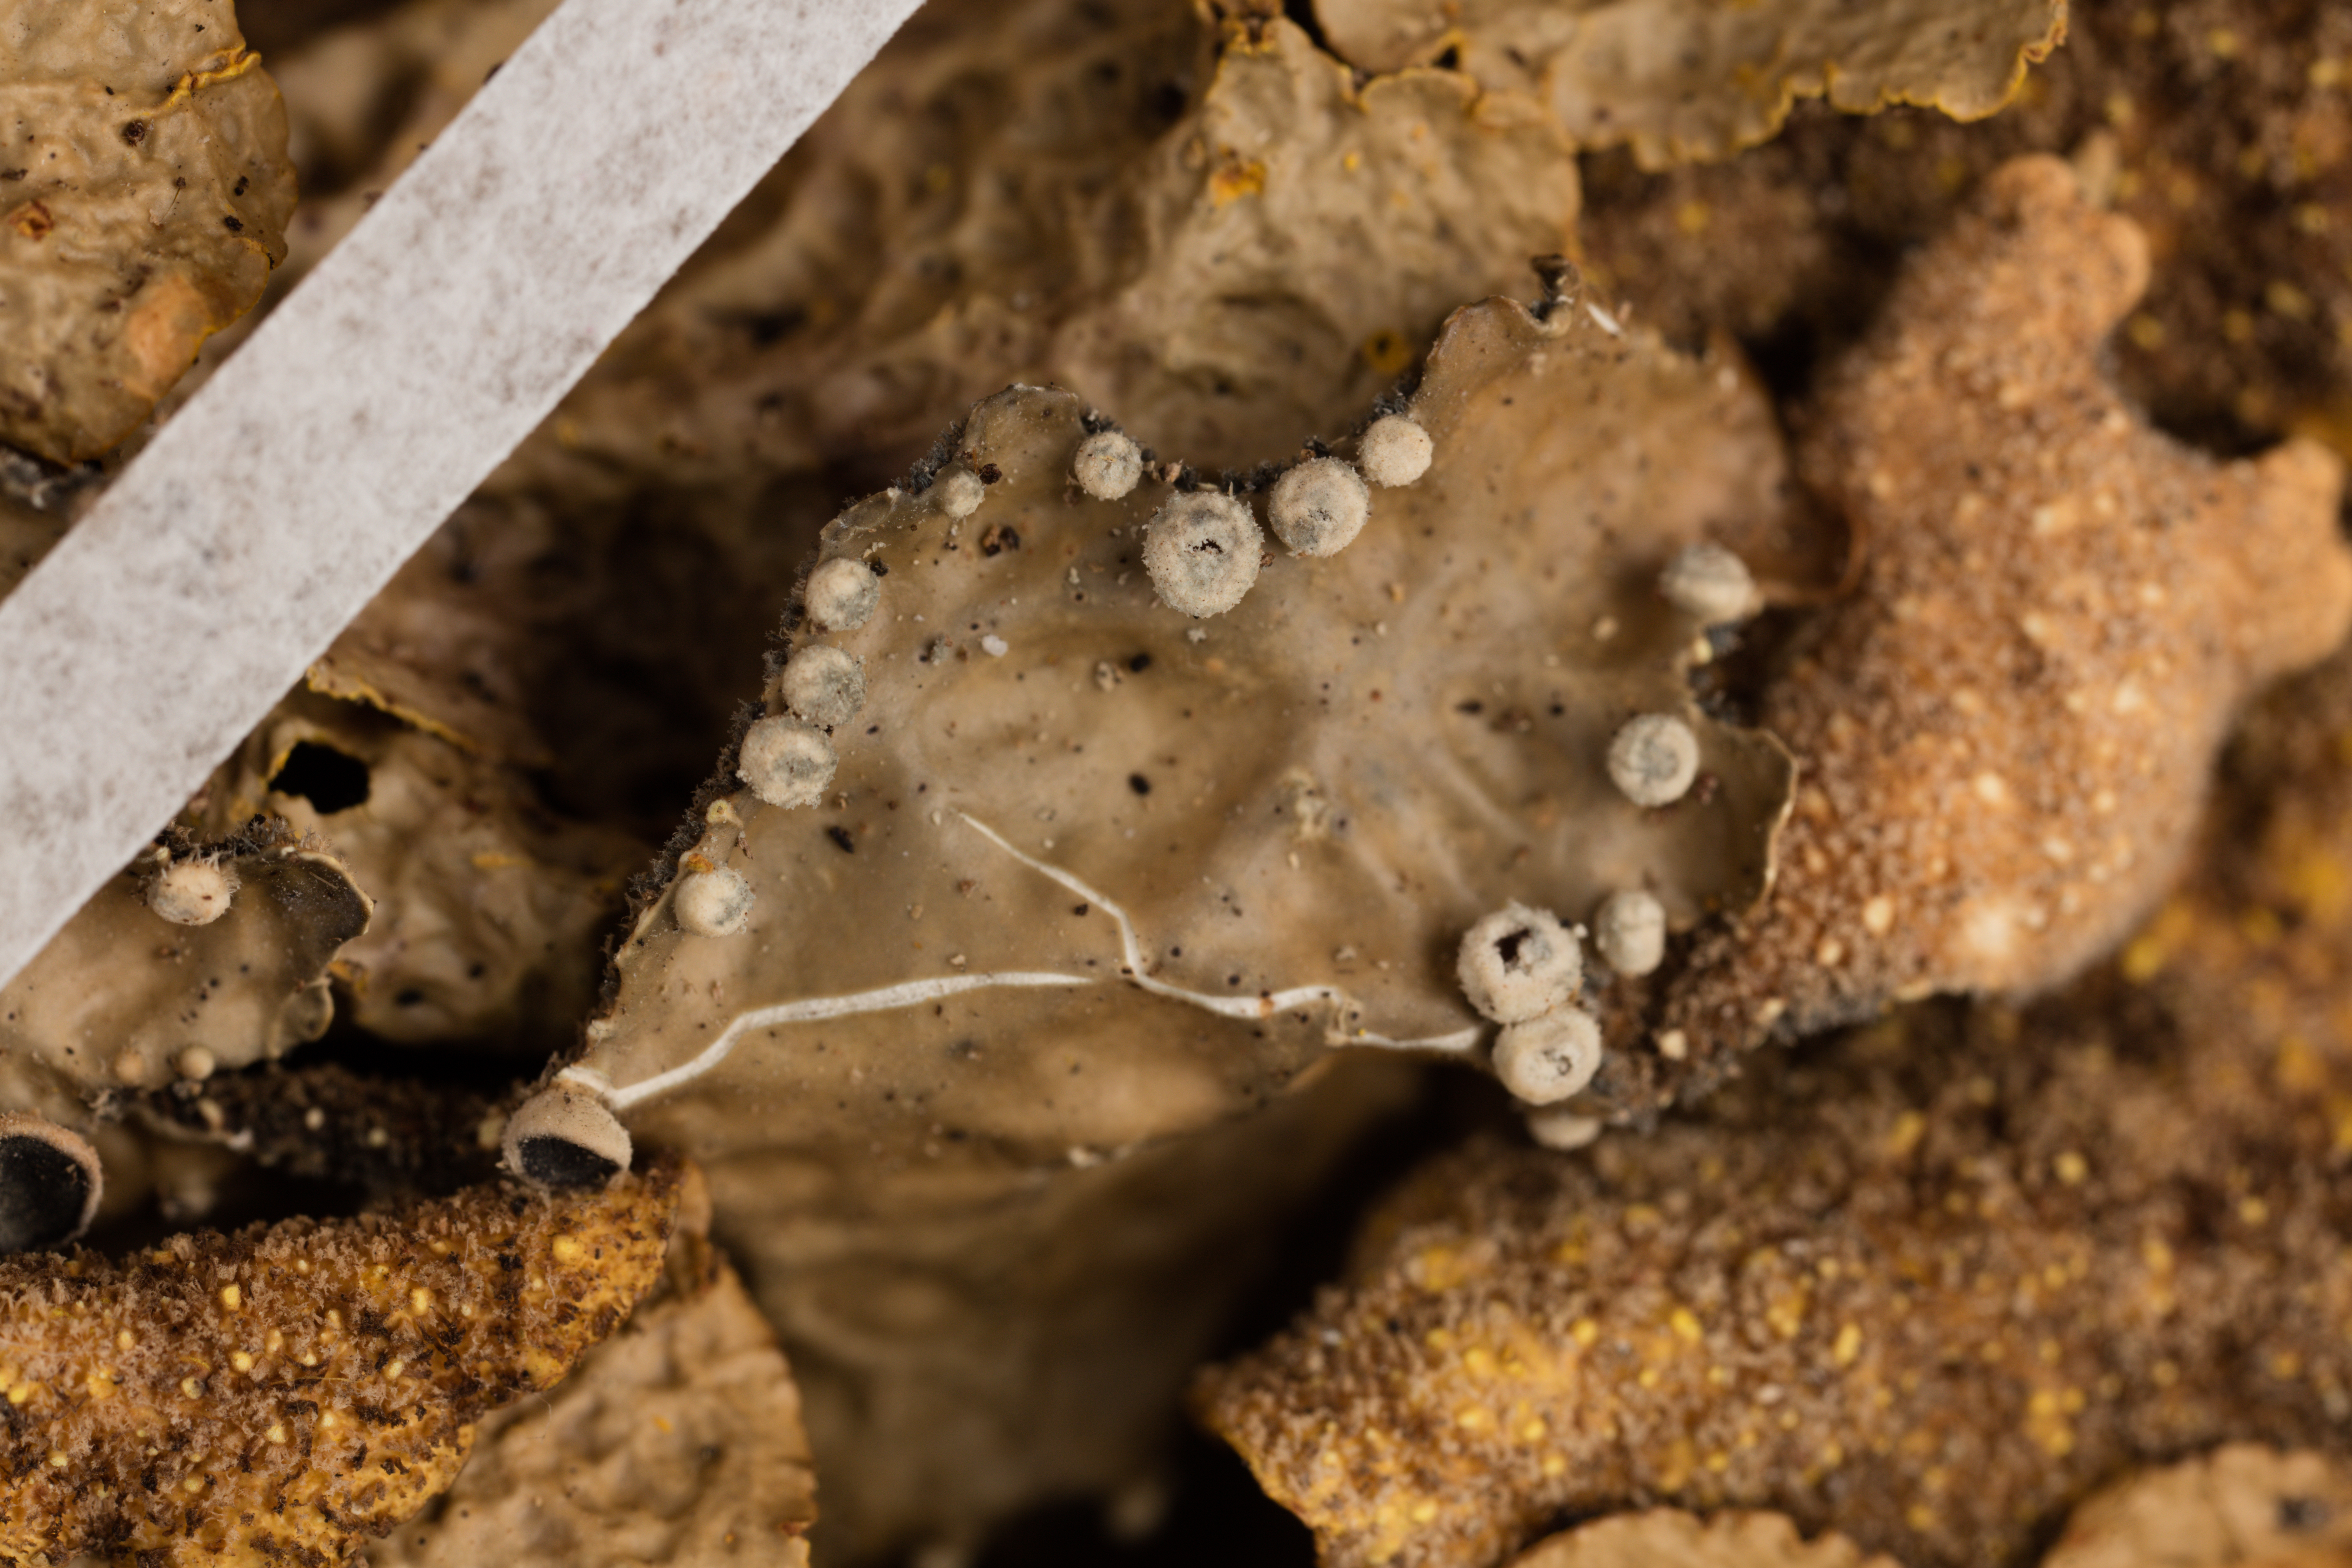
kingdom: Fungi
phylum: Ascomycota
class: Lecanoromycetes
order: Peltigerales
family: Lobariaceae
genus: Yarrumia
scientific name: Yarrumia coronata
